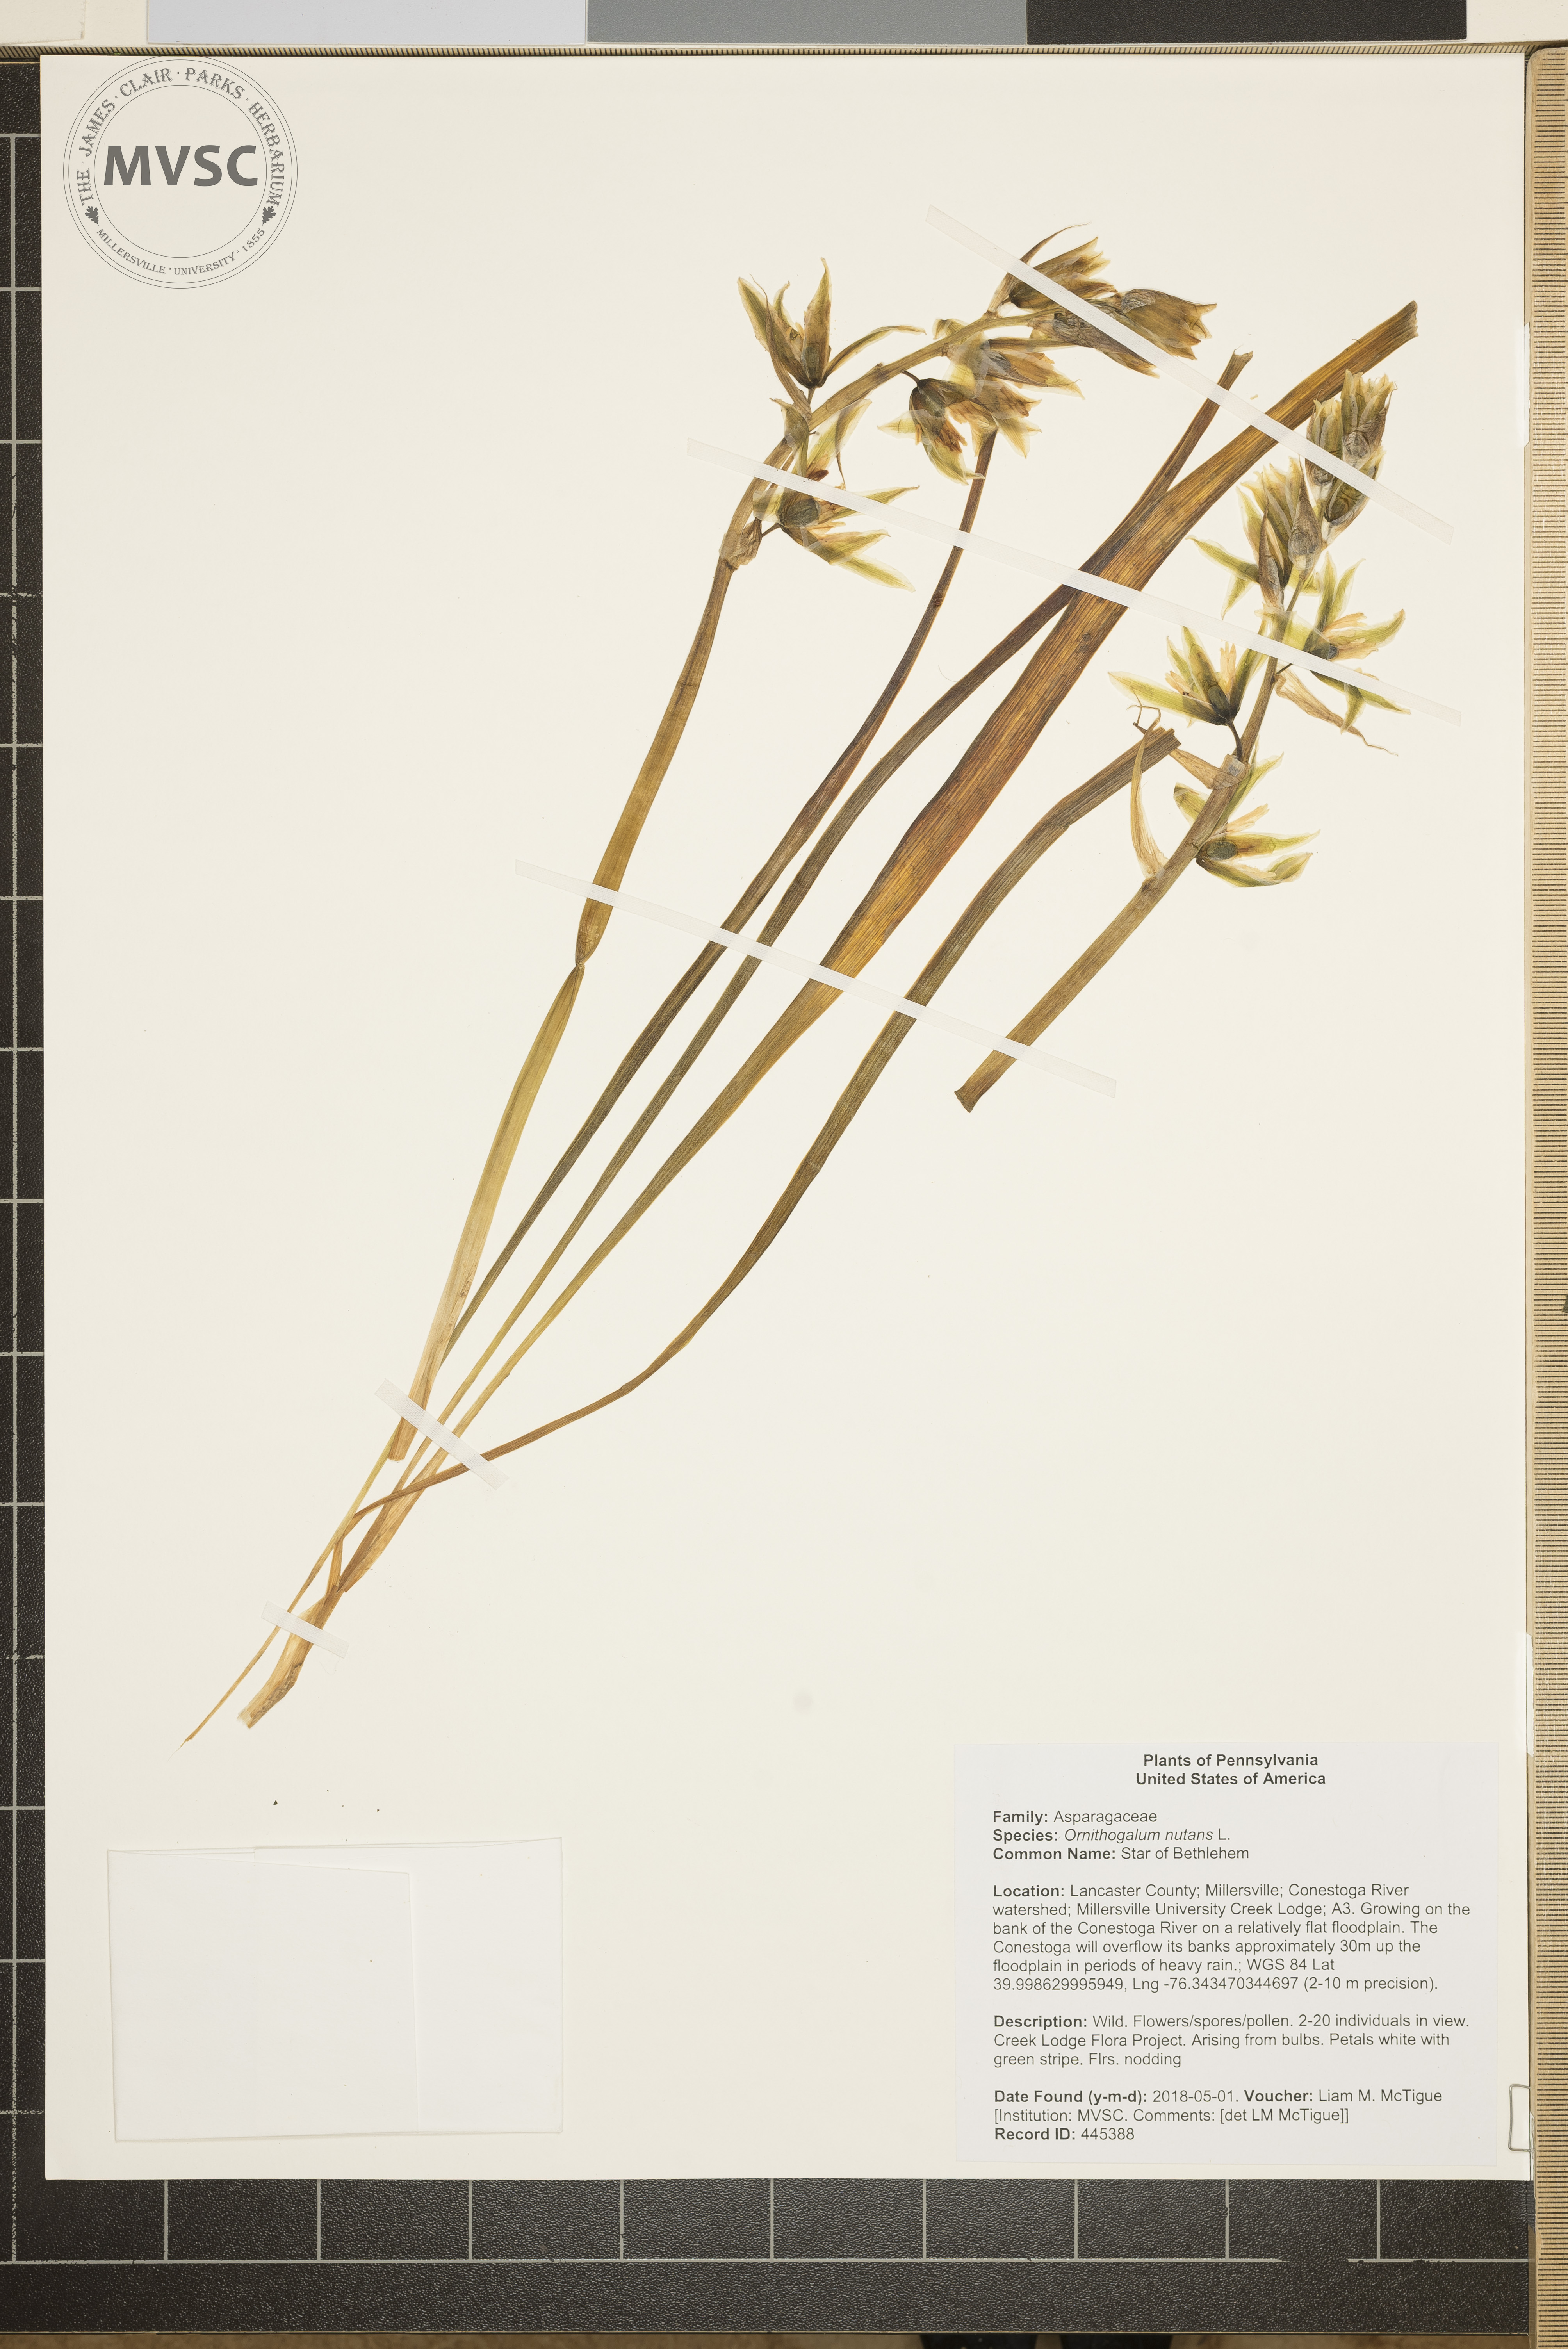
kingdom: Plantae
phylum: Tracheophyta
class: Liliopsida
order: Asparagales
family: Asparagaceae
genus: Ornithogalum
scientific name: Ornithogalum nutans
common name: Star of Bethlehem
